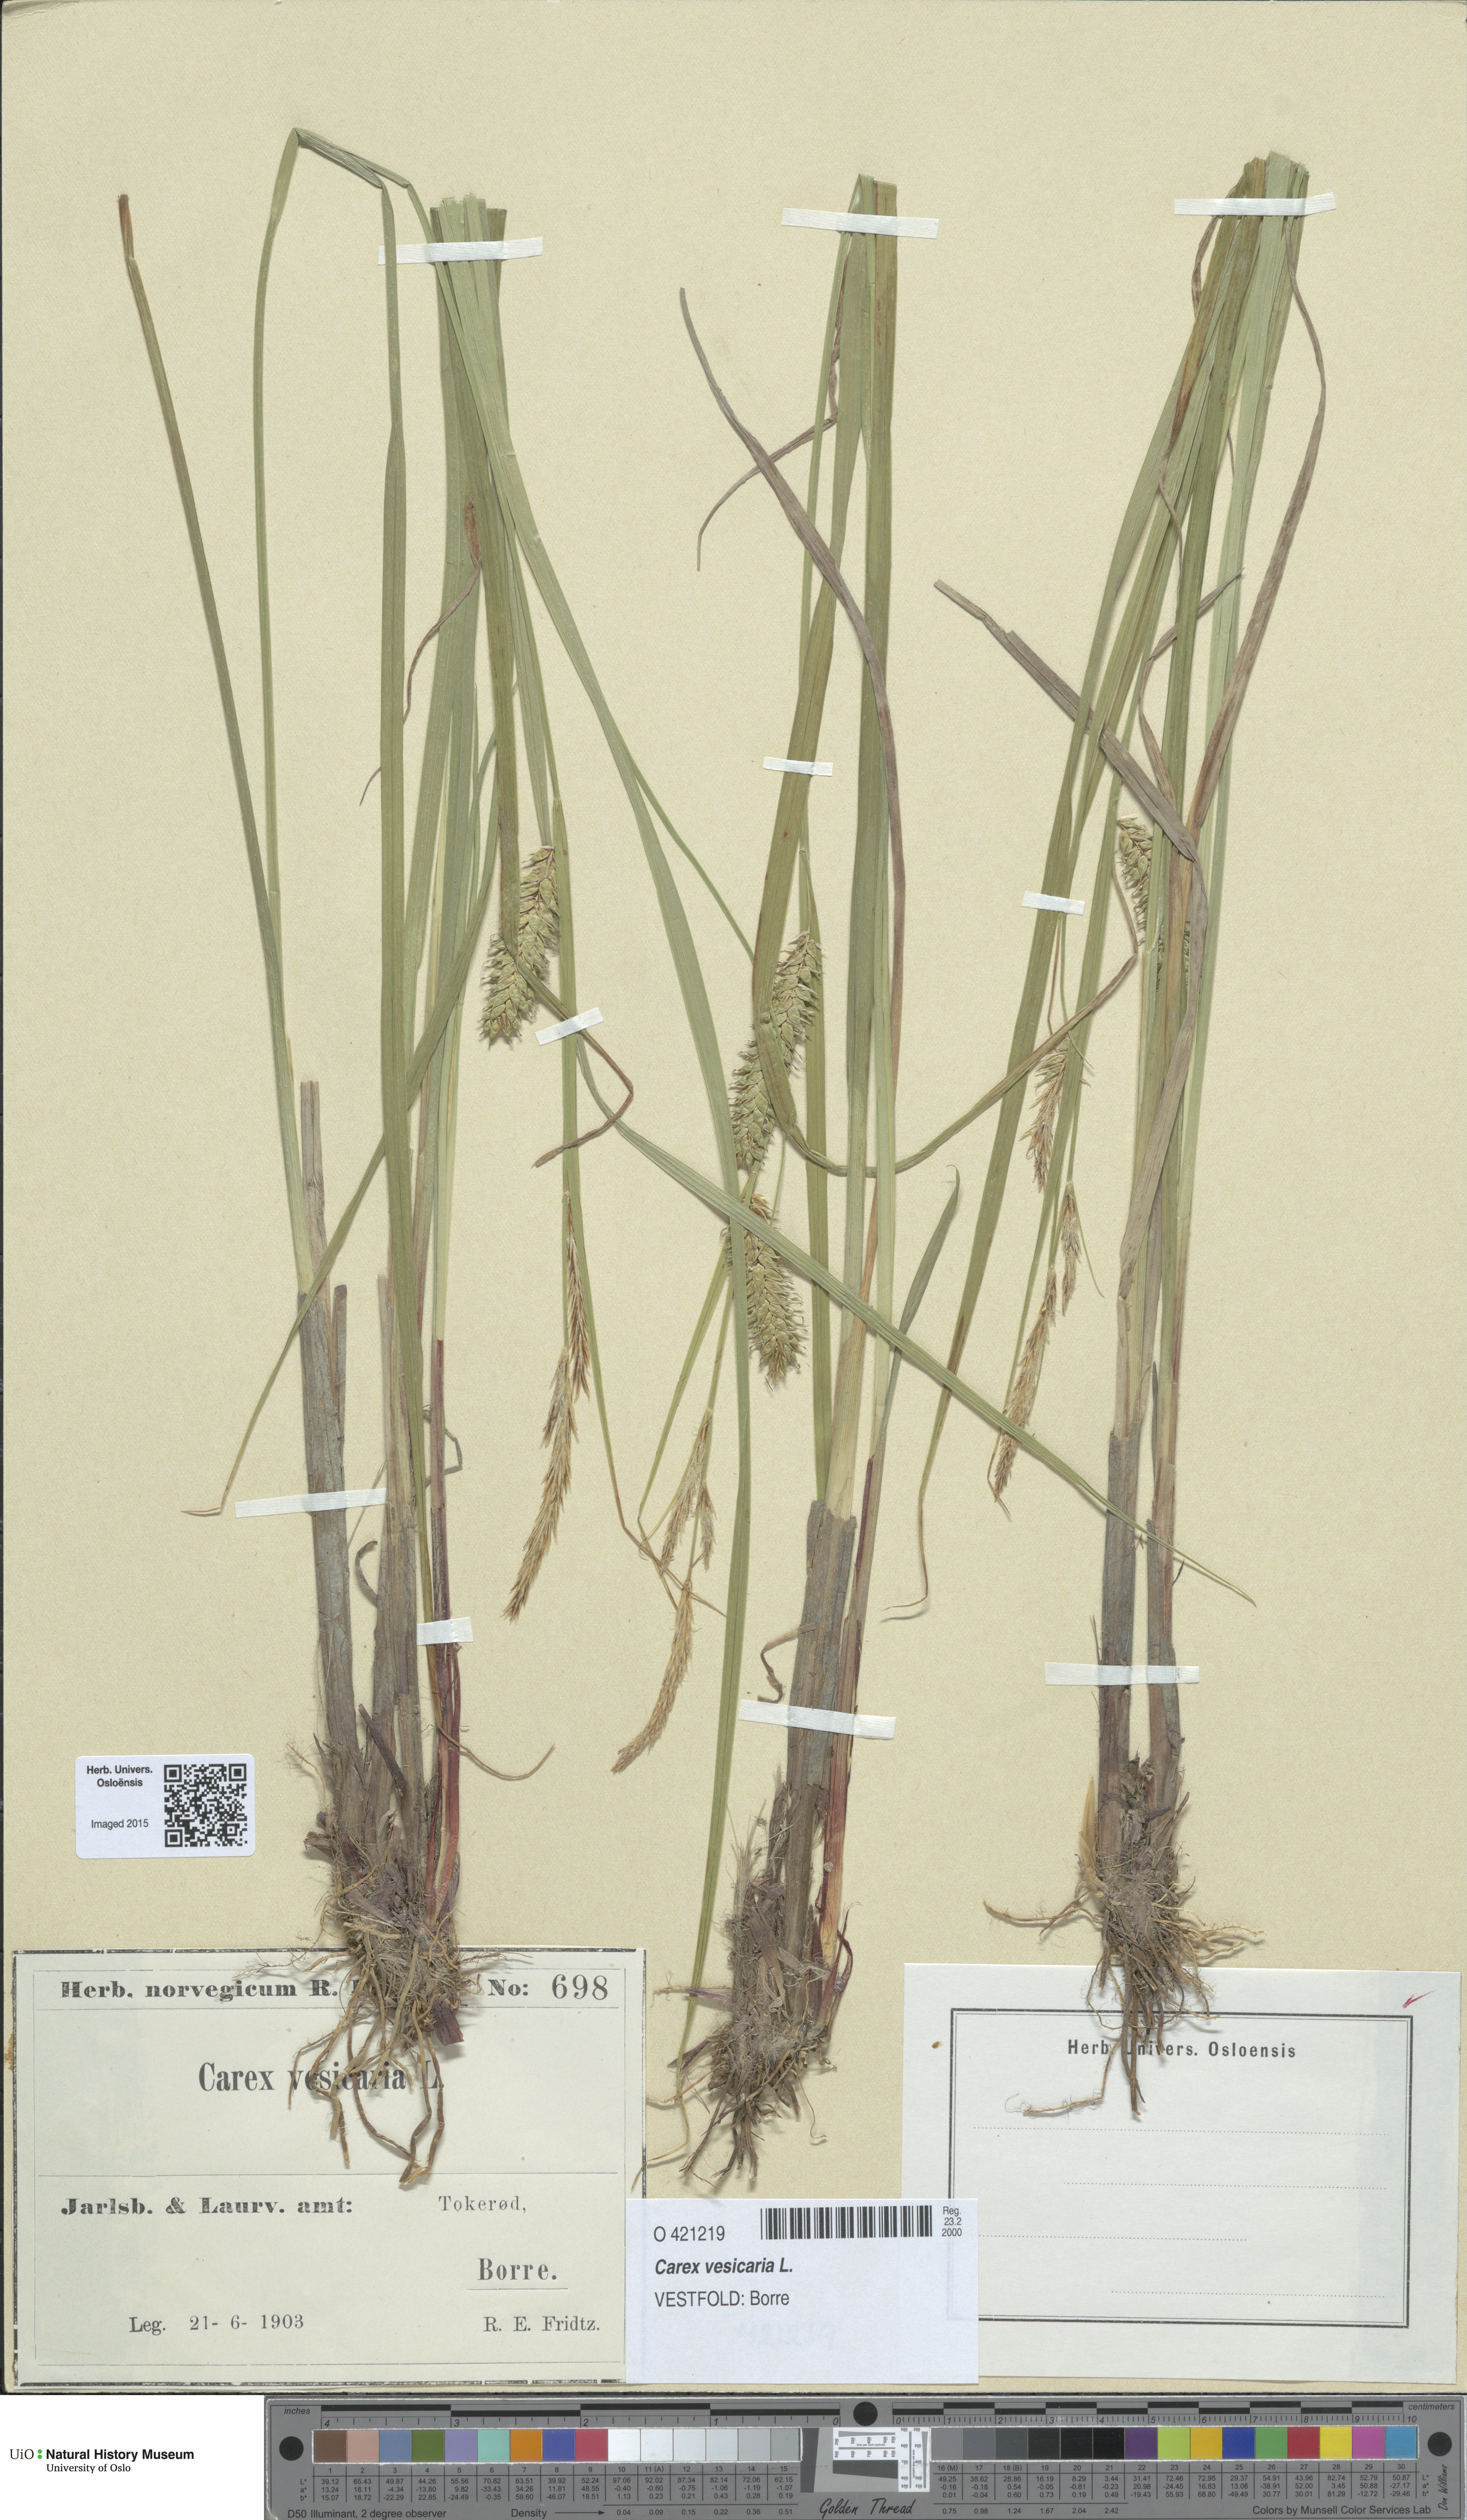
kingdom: Plantae
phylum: Tracheophyta
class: Liliopsida
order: Poales
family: Cyperaceae
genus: Carex
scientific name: Carex vesicaria
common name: Bladder-sedge
